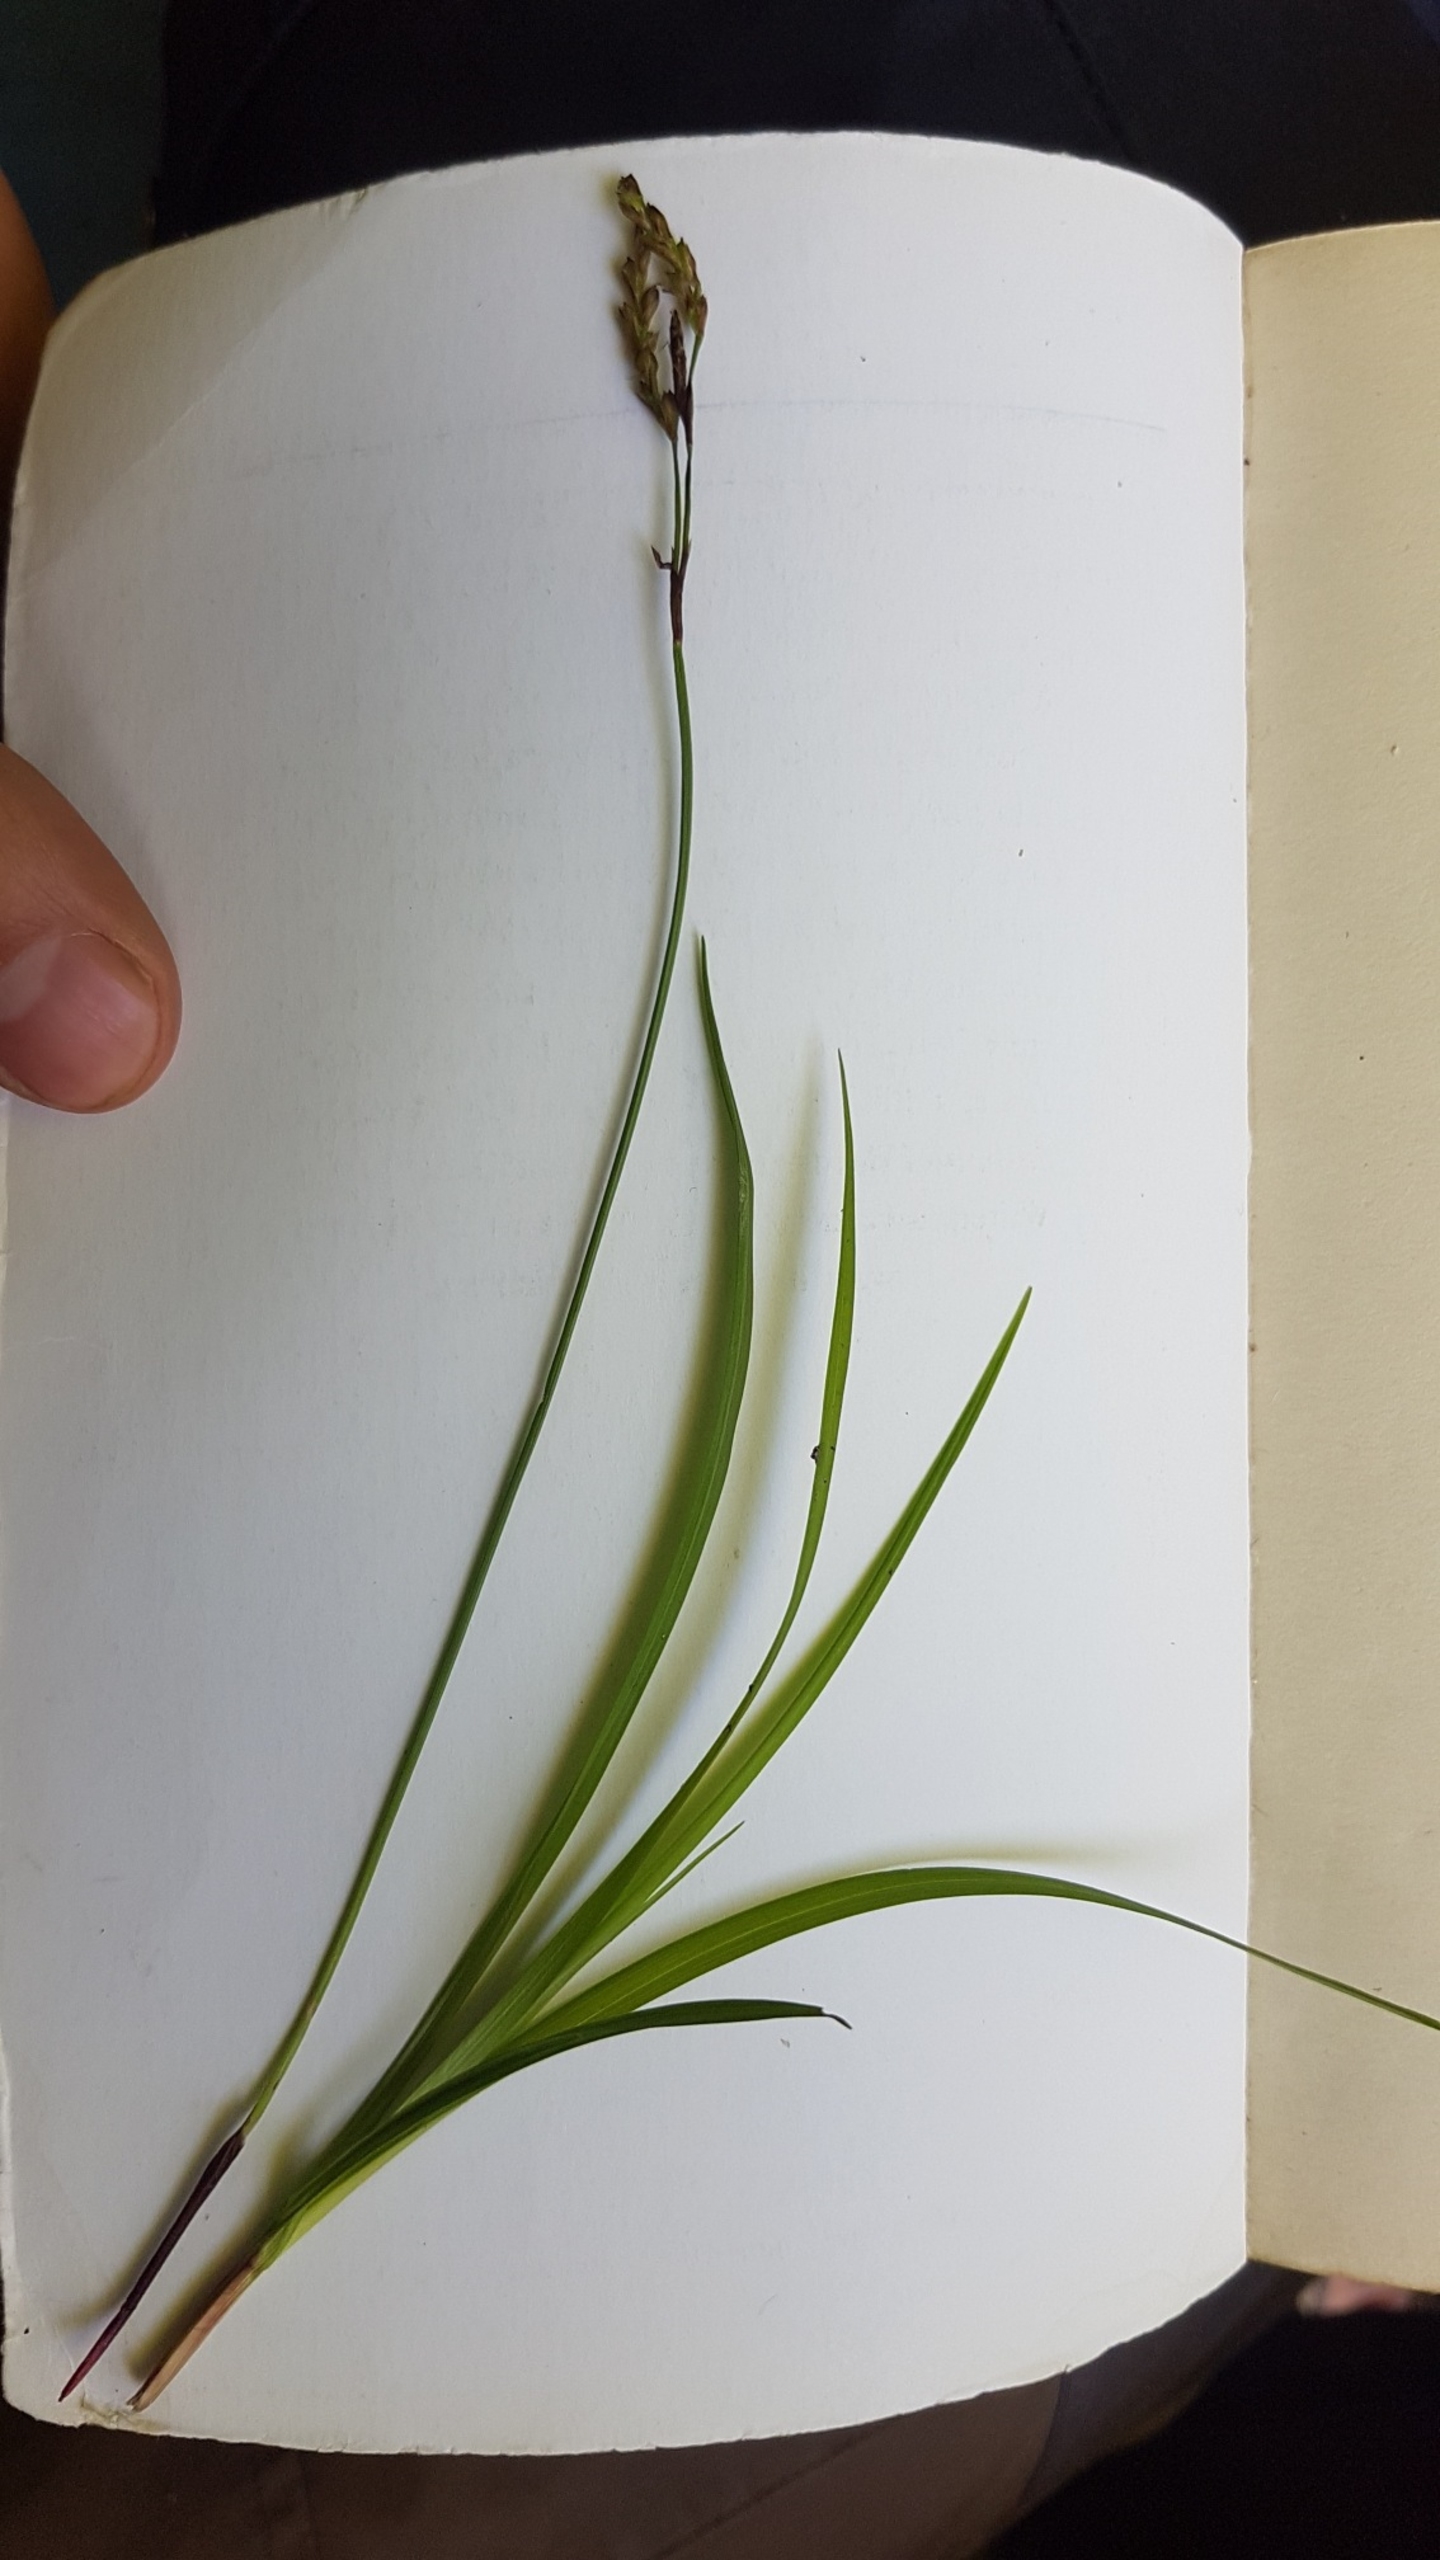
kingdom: Plantae
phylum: Tracheophyta
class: Liliopsida
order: Poales
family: Cyperaceae
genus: Carex
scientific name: Carex digitata
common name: Finger-star
